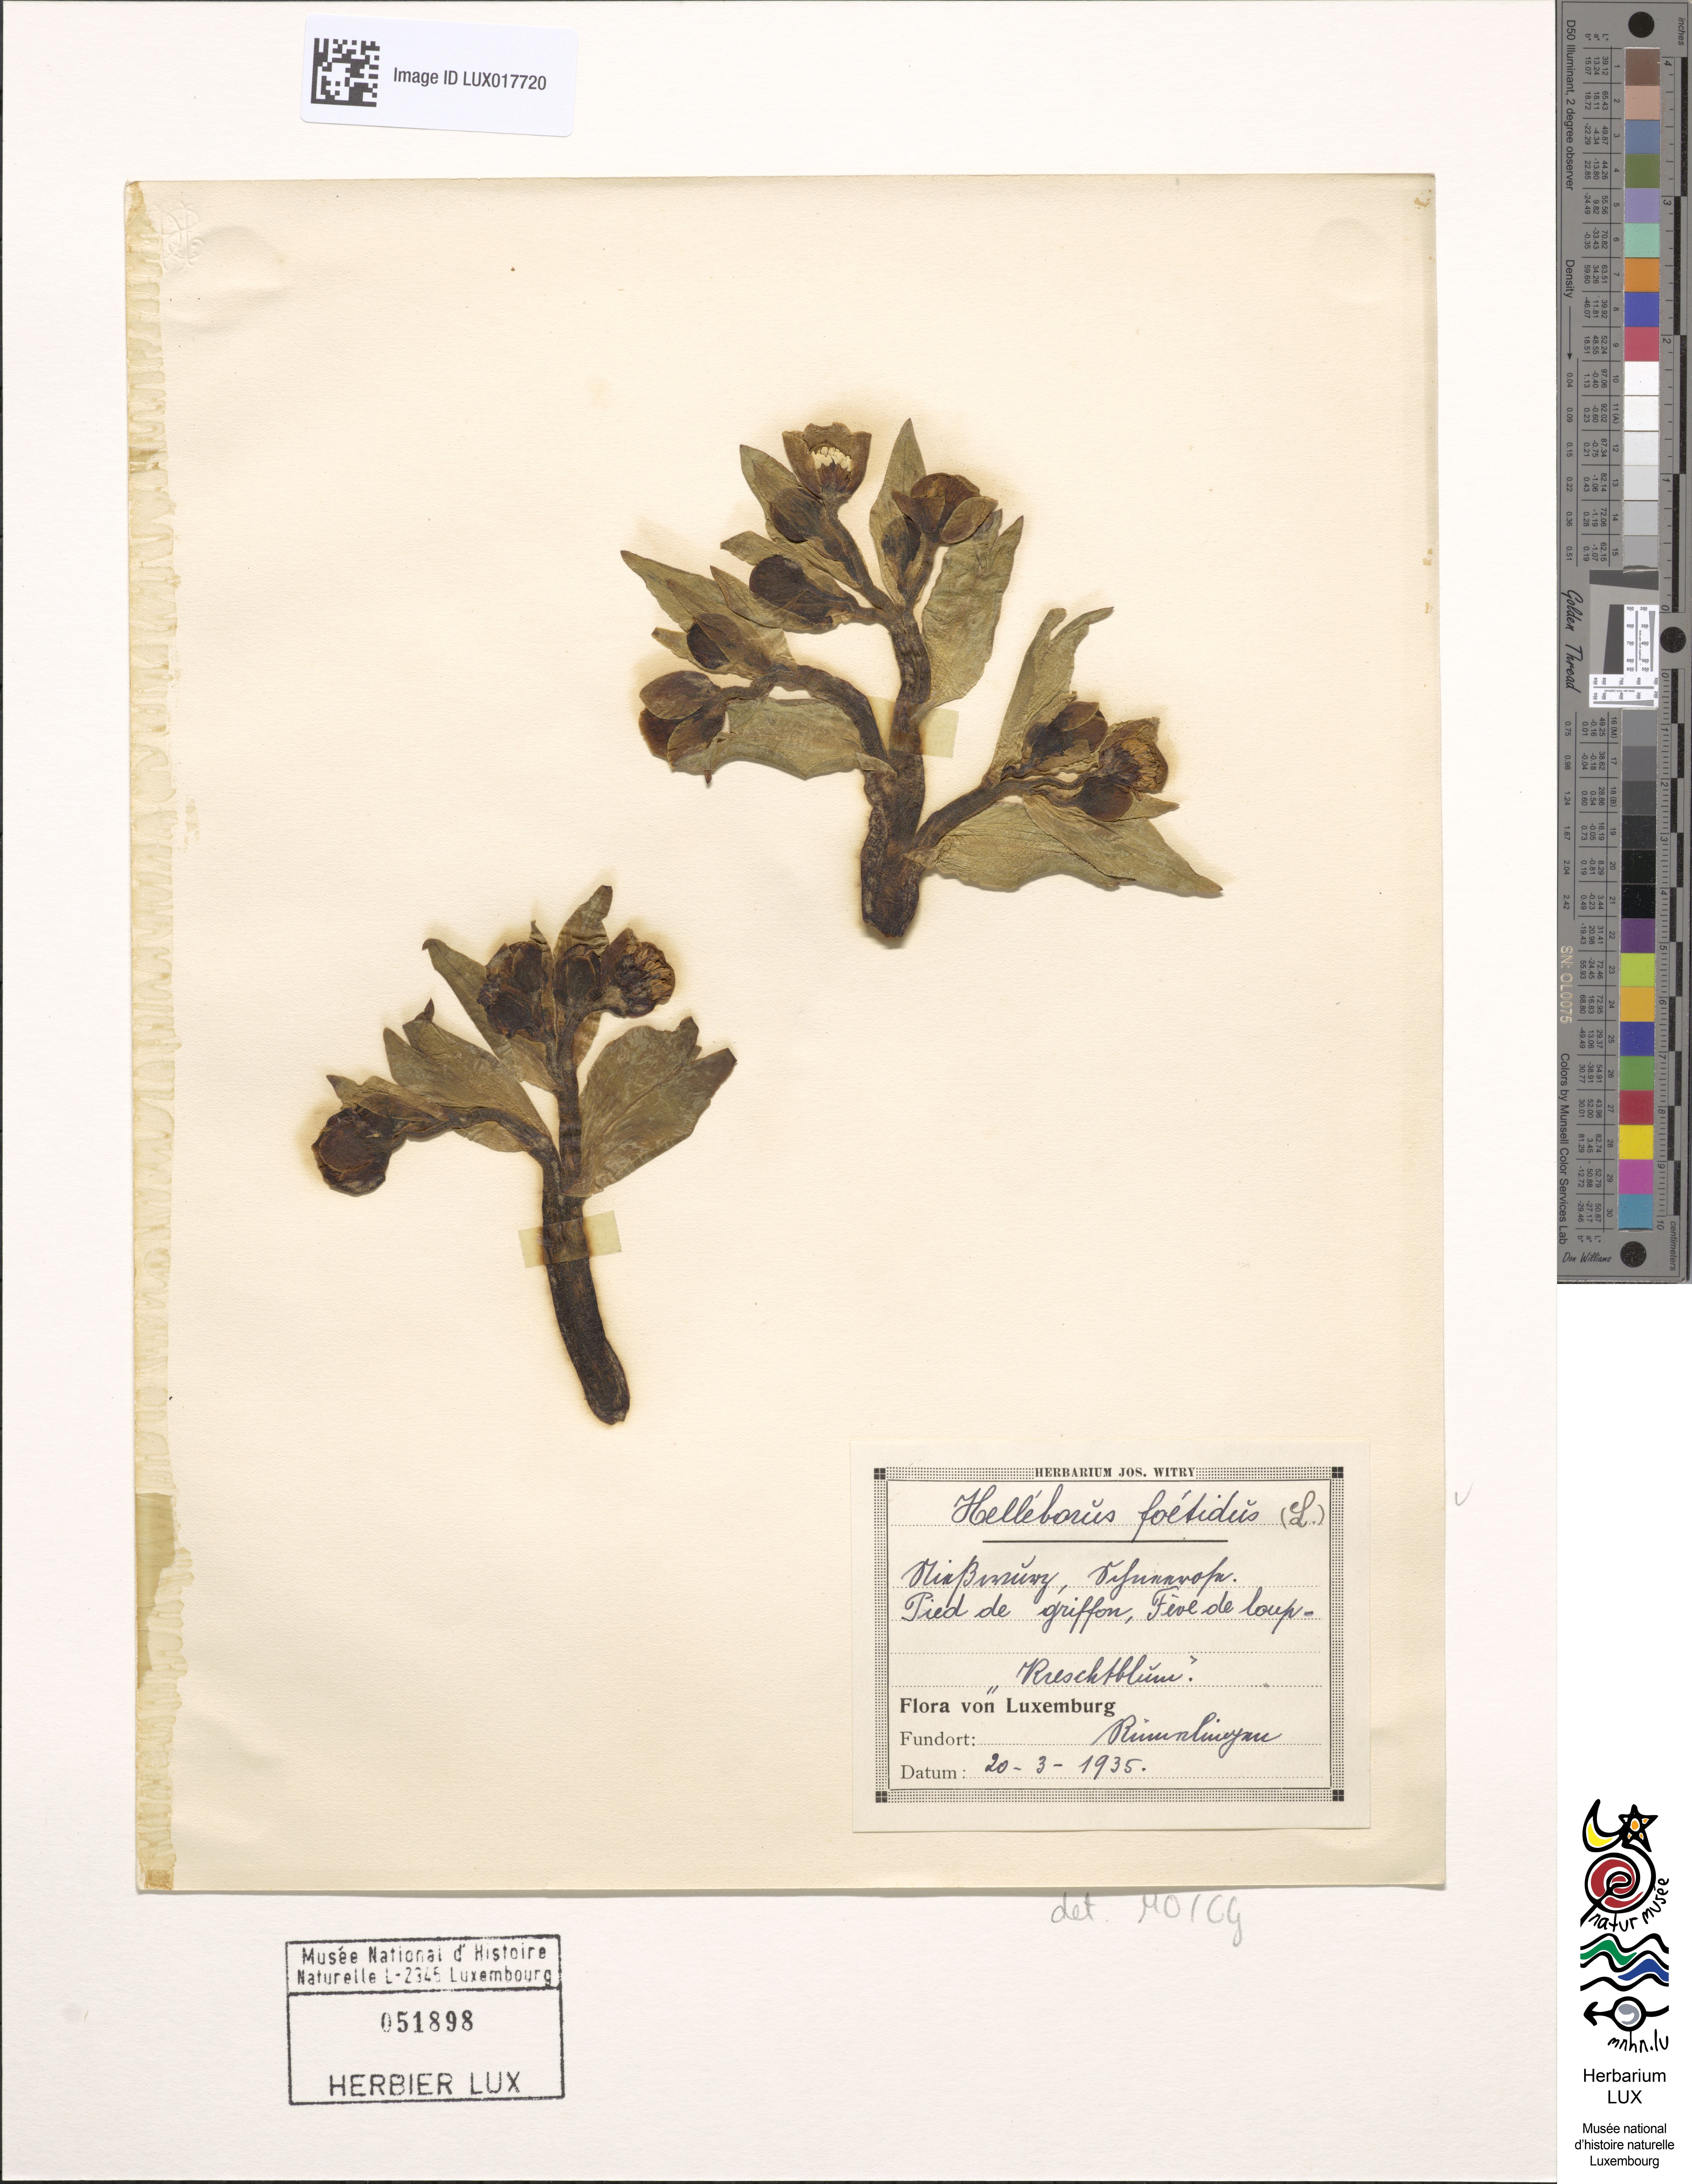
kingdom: Plantae
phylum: Tracheophyta
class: Magnoliopsida
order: Ranunculales
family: Ranunculaceae
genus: Helleborus
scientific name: Helleborus foetidus
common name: Stinking hellebore
